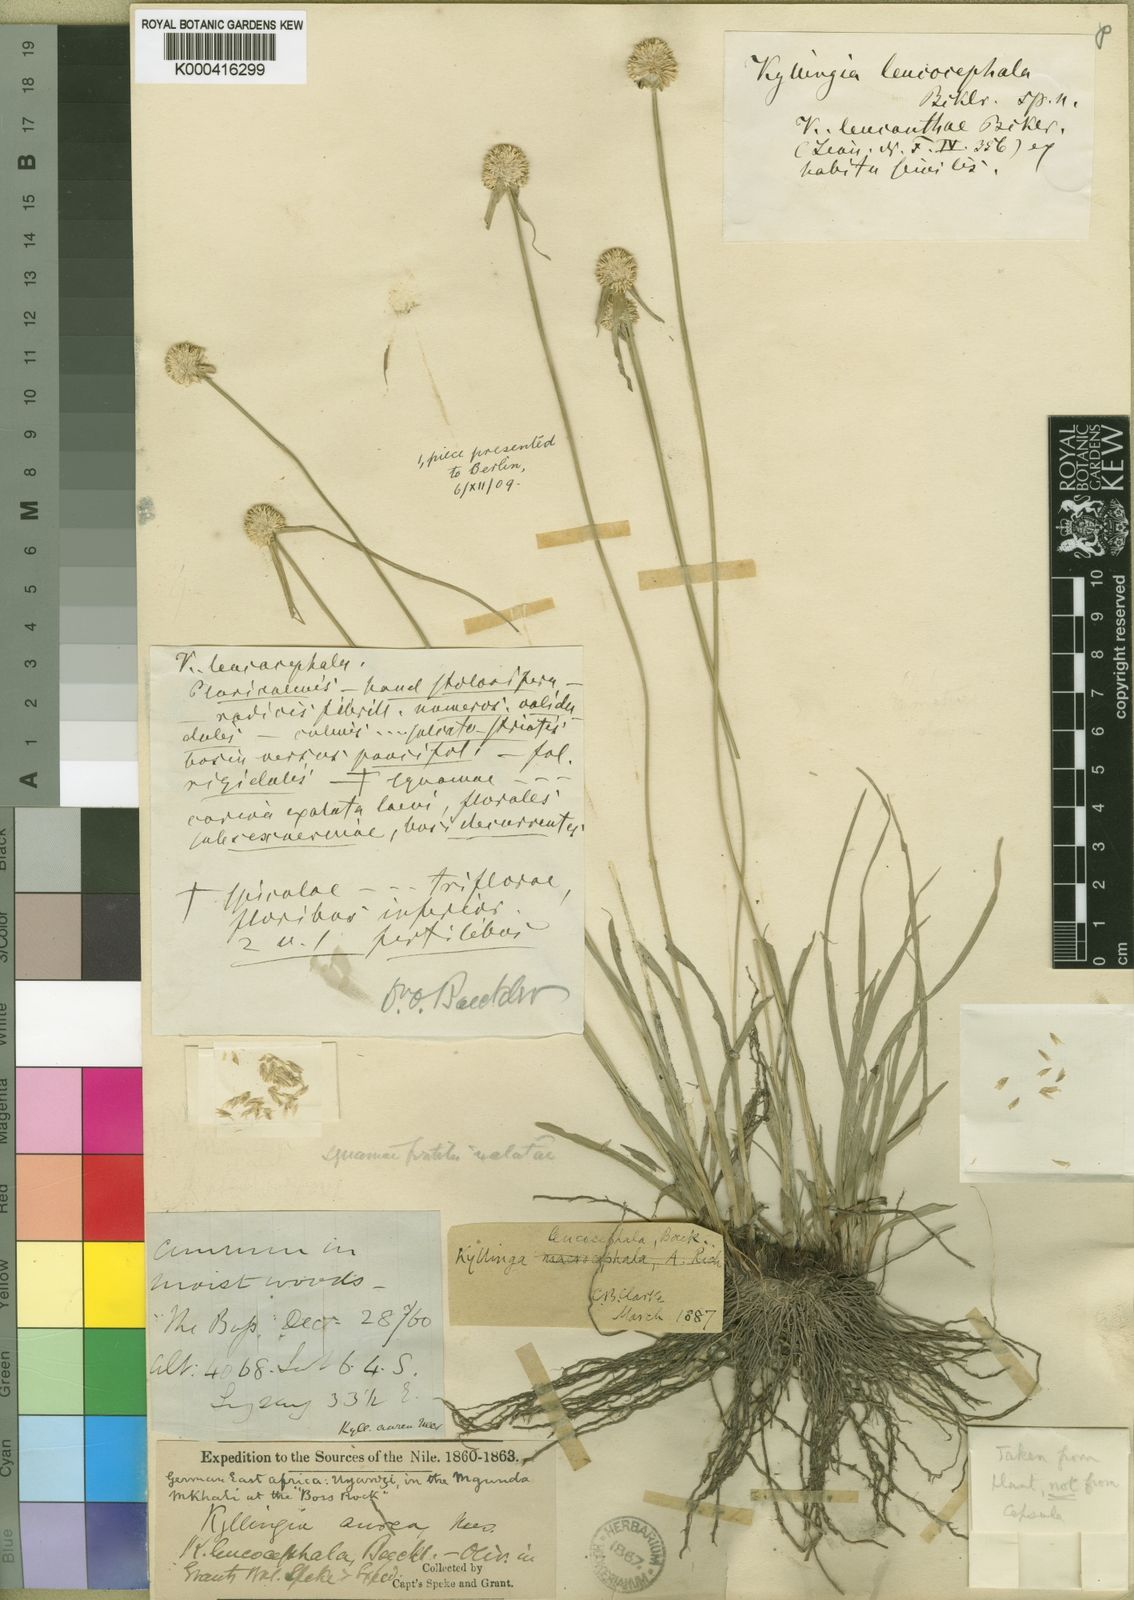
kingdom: Plantae
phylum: Tracheophyta
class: Liliopsida
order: Poales
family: Cyperaceae
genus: Cyperus
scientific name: Cyperus comosipes
